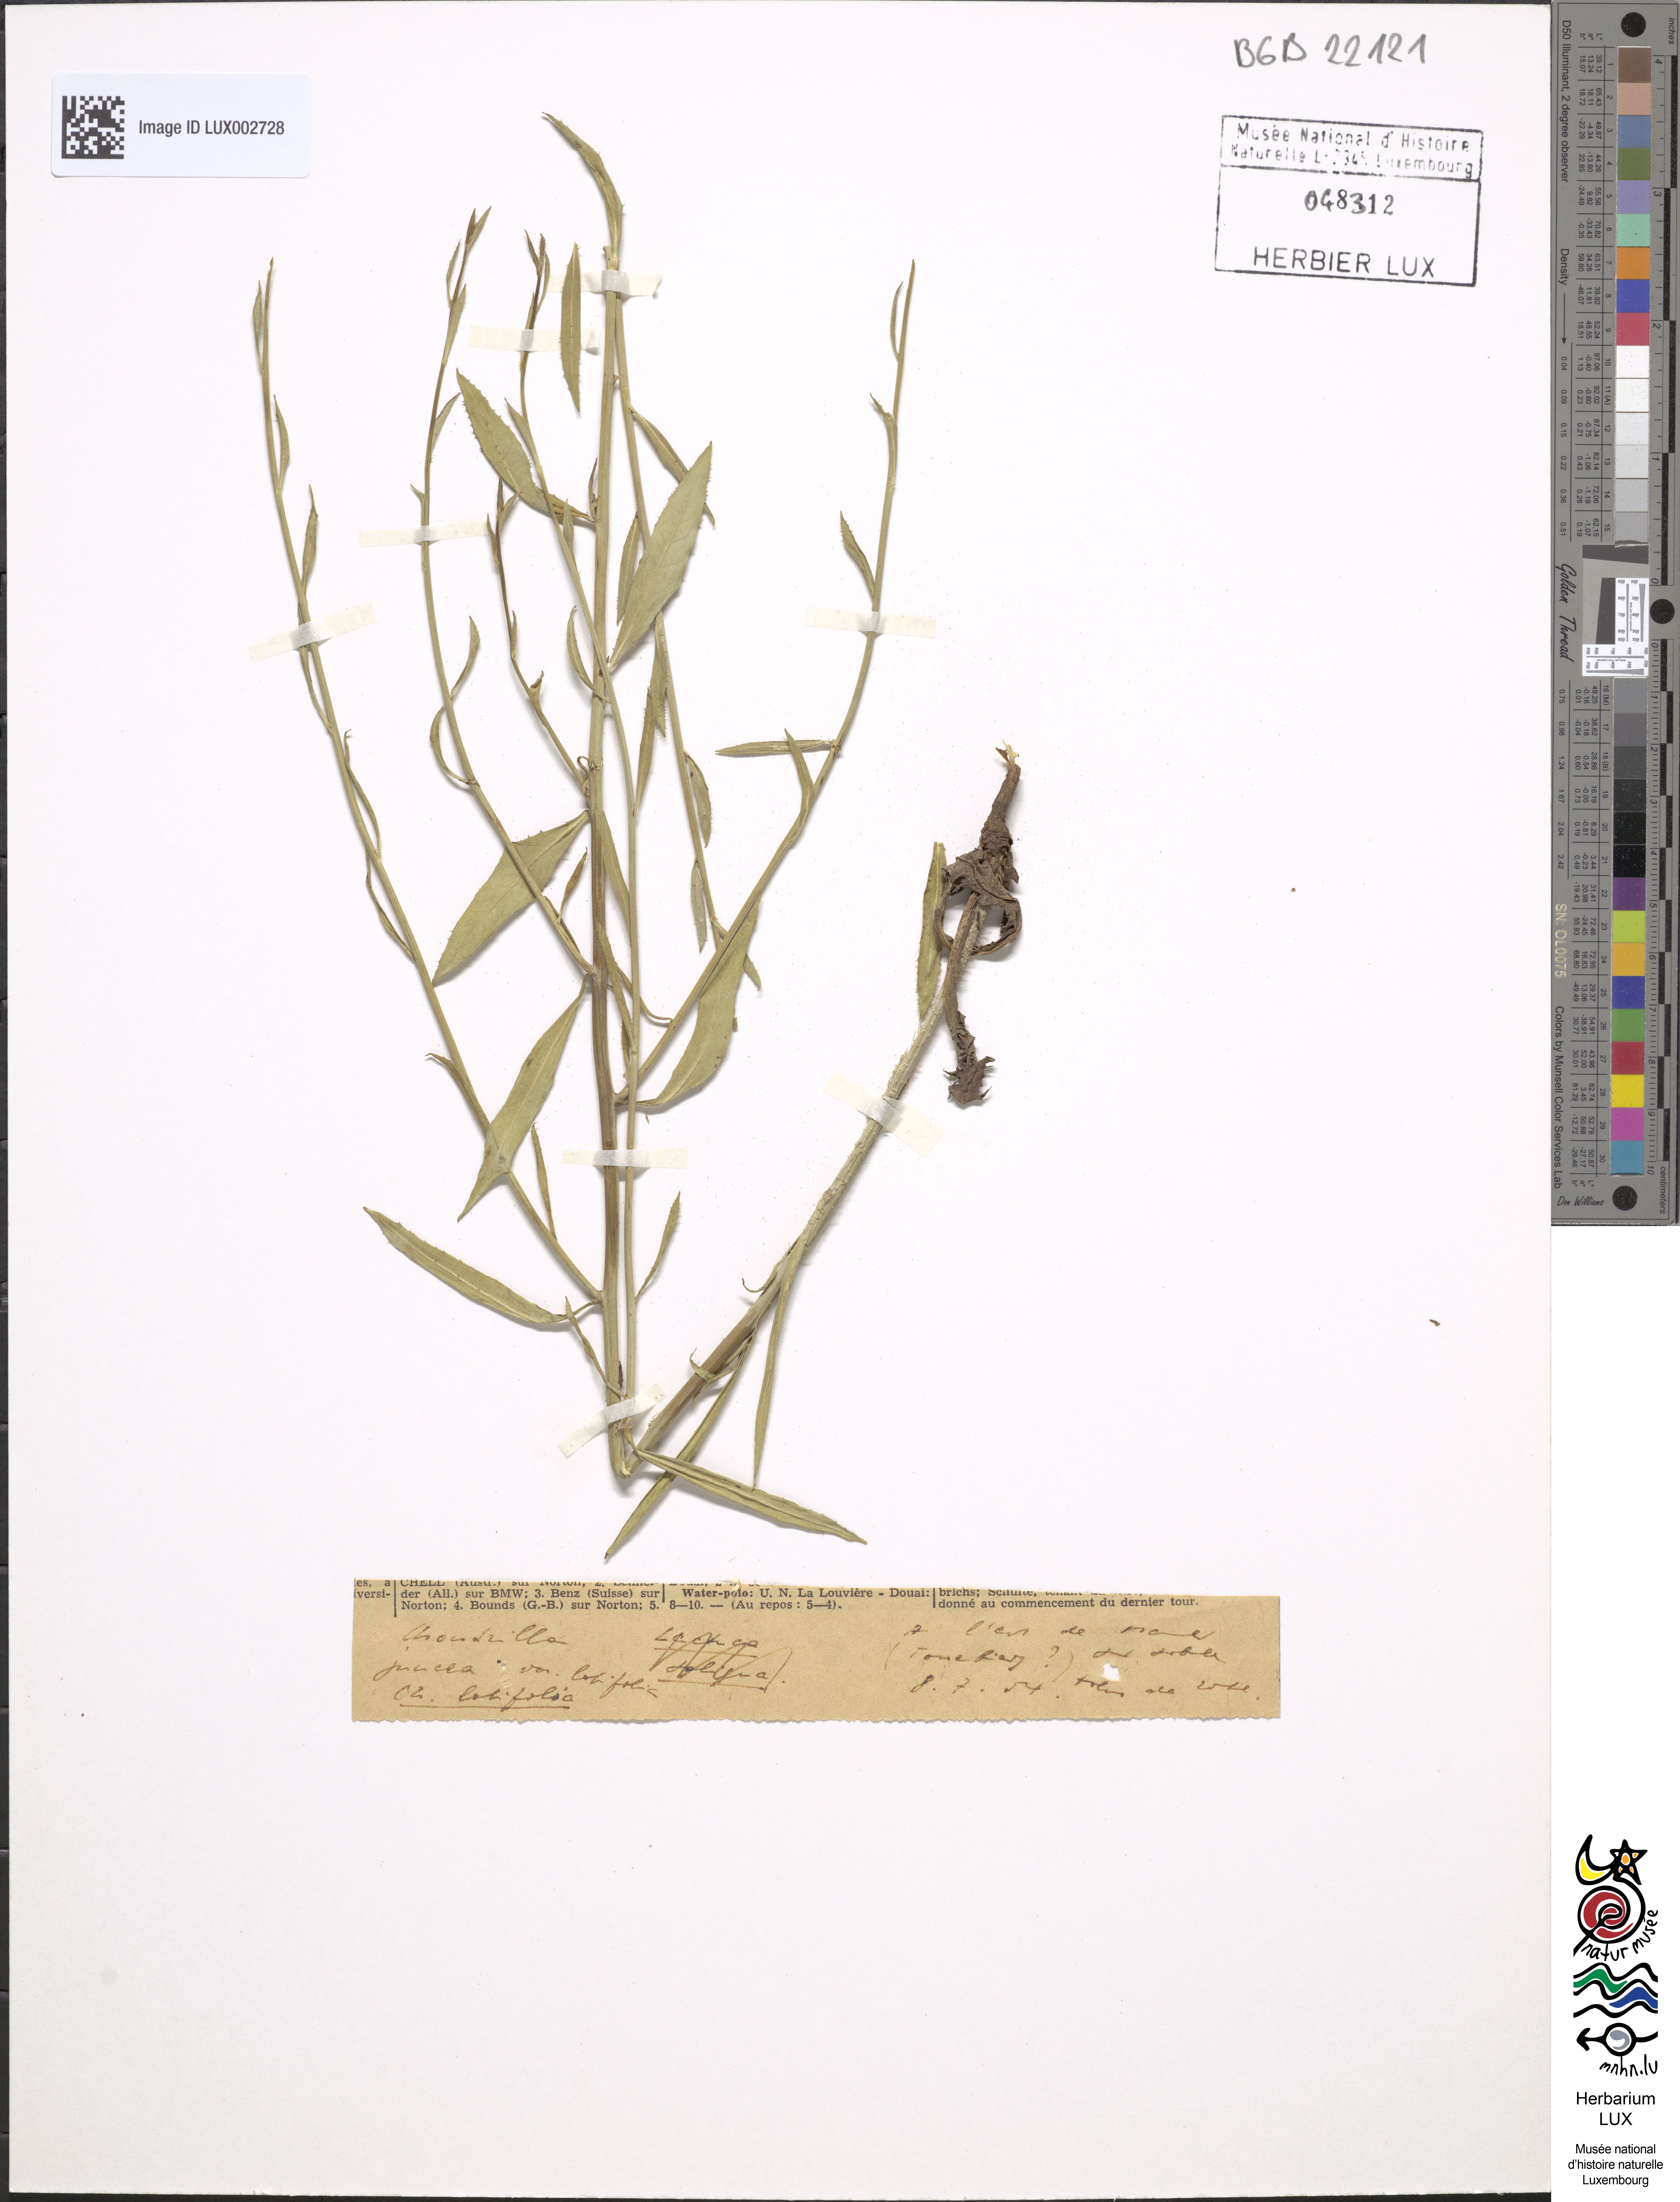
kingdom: Plantae
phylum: Tracheophyta
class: Magnoliopsida
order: Asterales
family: Asteraceae
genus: Chondrilla
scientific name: Chondrilla latifolia
